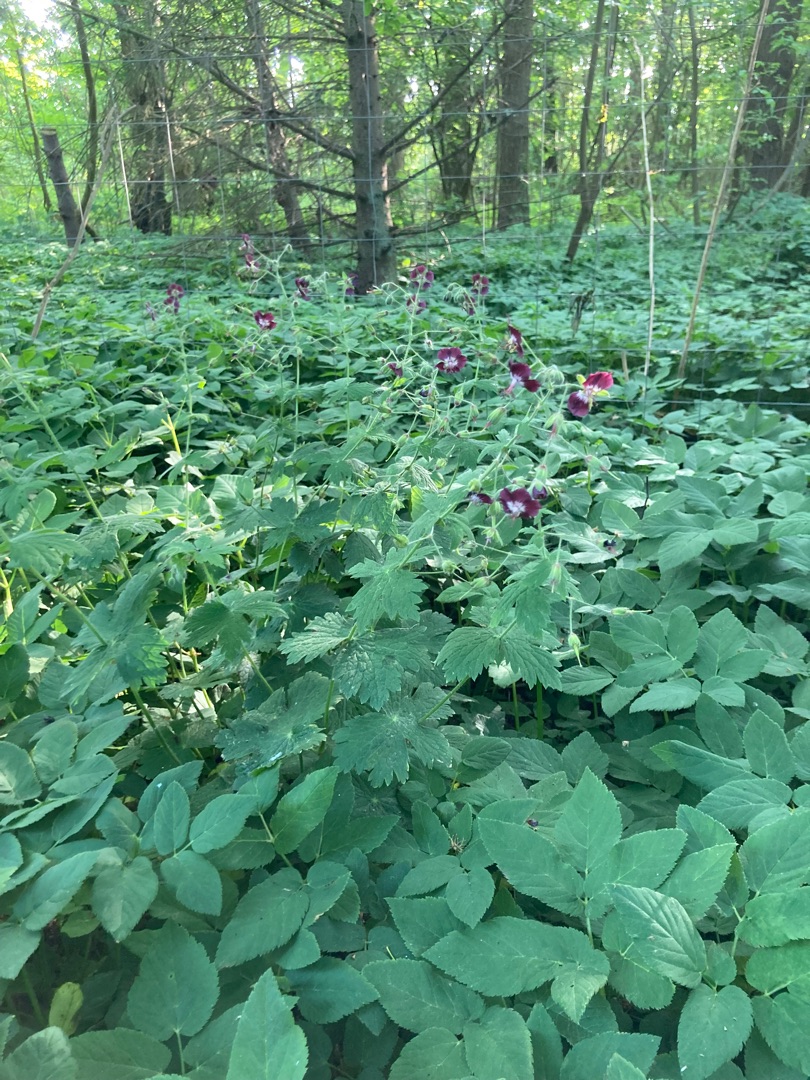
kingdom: Plantae
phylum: Tracheophyta
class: Magnoliopsida
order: Geraniales
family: Geraniaceae
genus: Geranium
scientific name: Geranium phaeum
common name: Bølgekronet storkenæb
